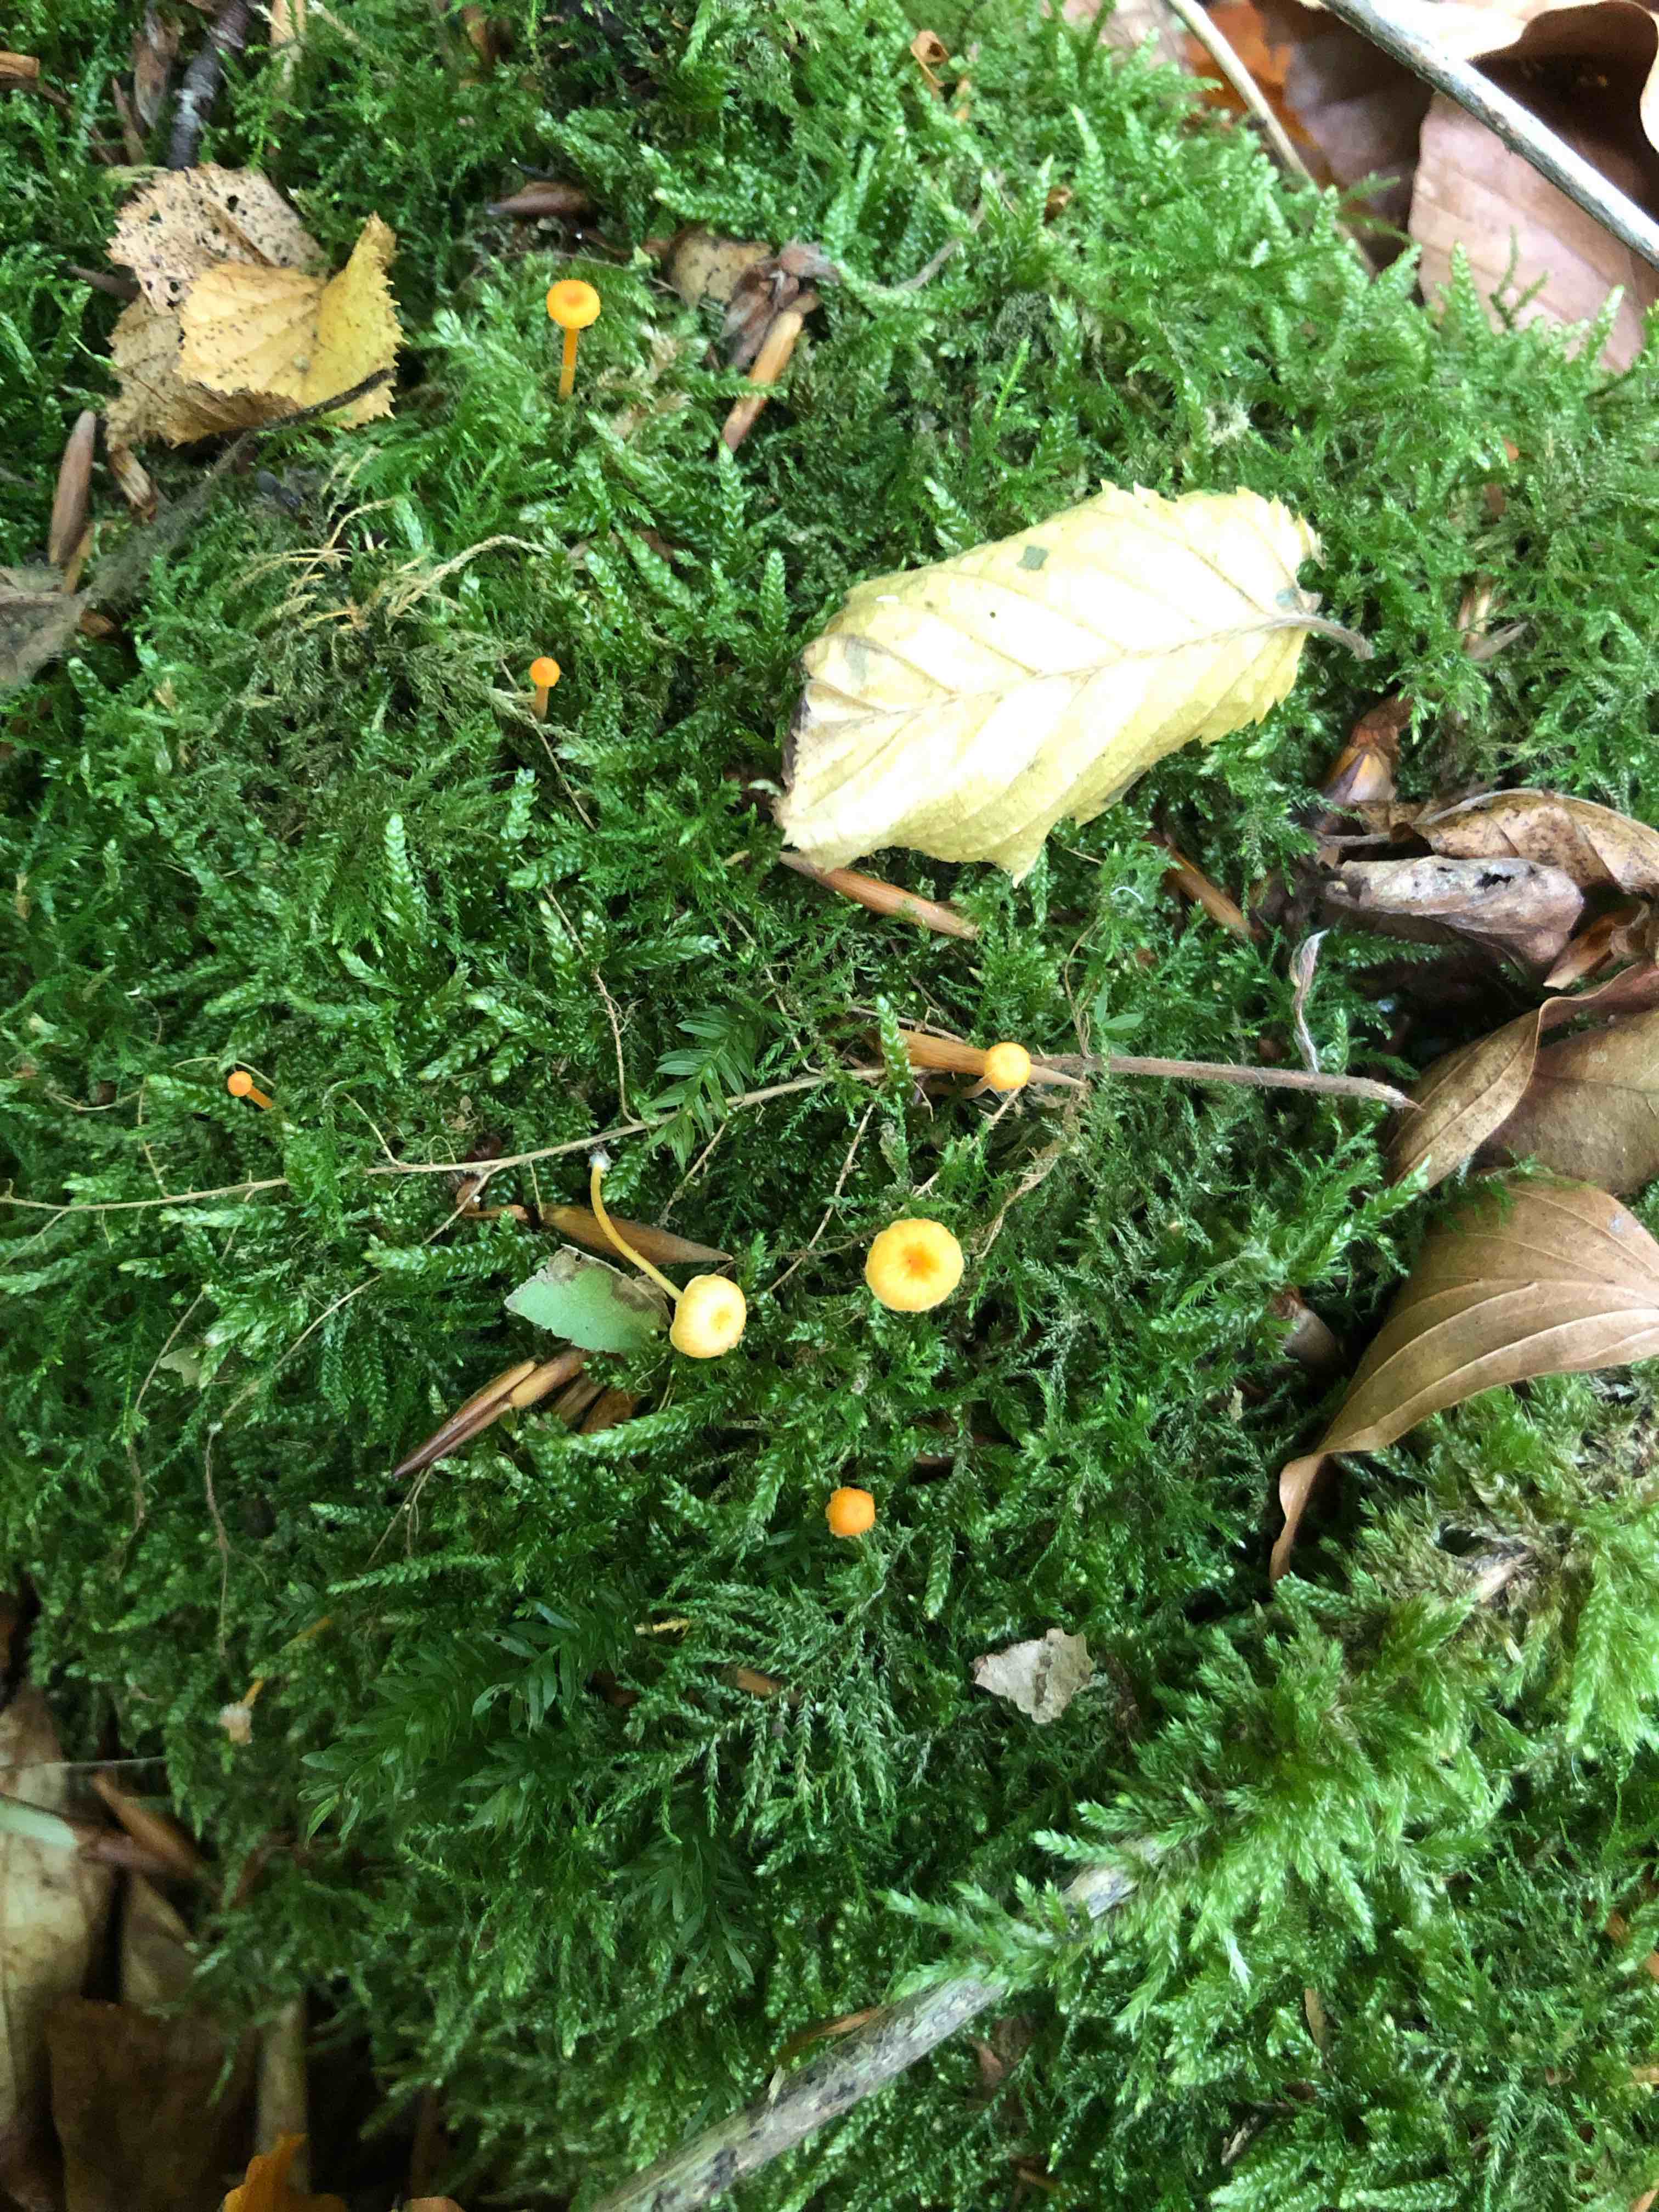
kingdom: Fungi
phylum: Basidiomycota
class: Agaricomycetes
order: Hymenochaetales
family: Rickenellaceae
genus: Rickenella
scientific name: Rickenella fibula
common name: orange mosnavlehat
